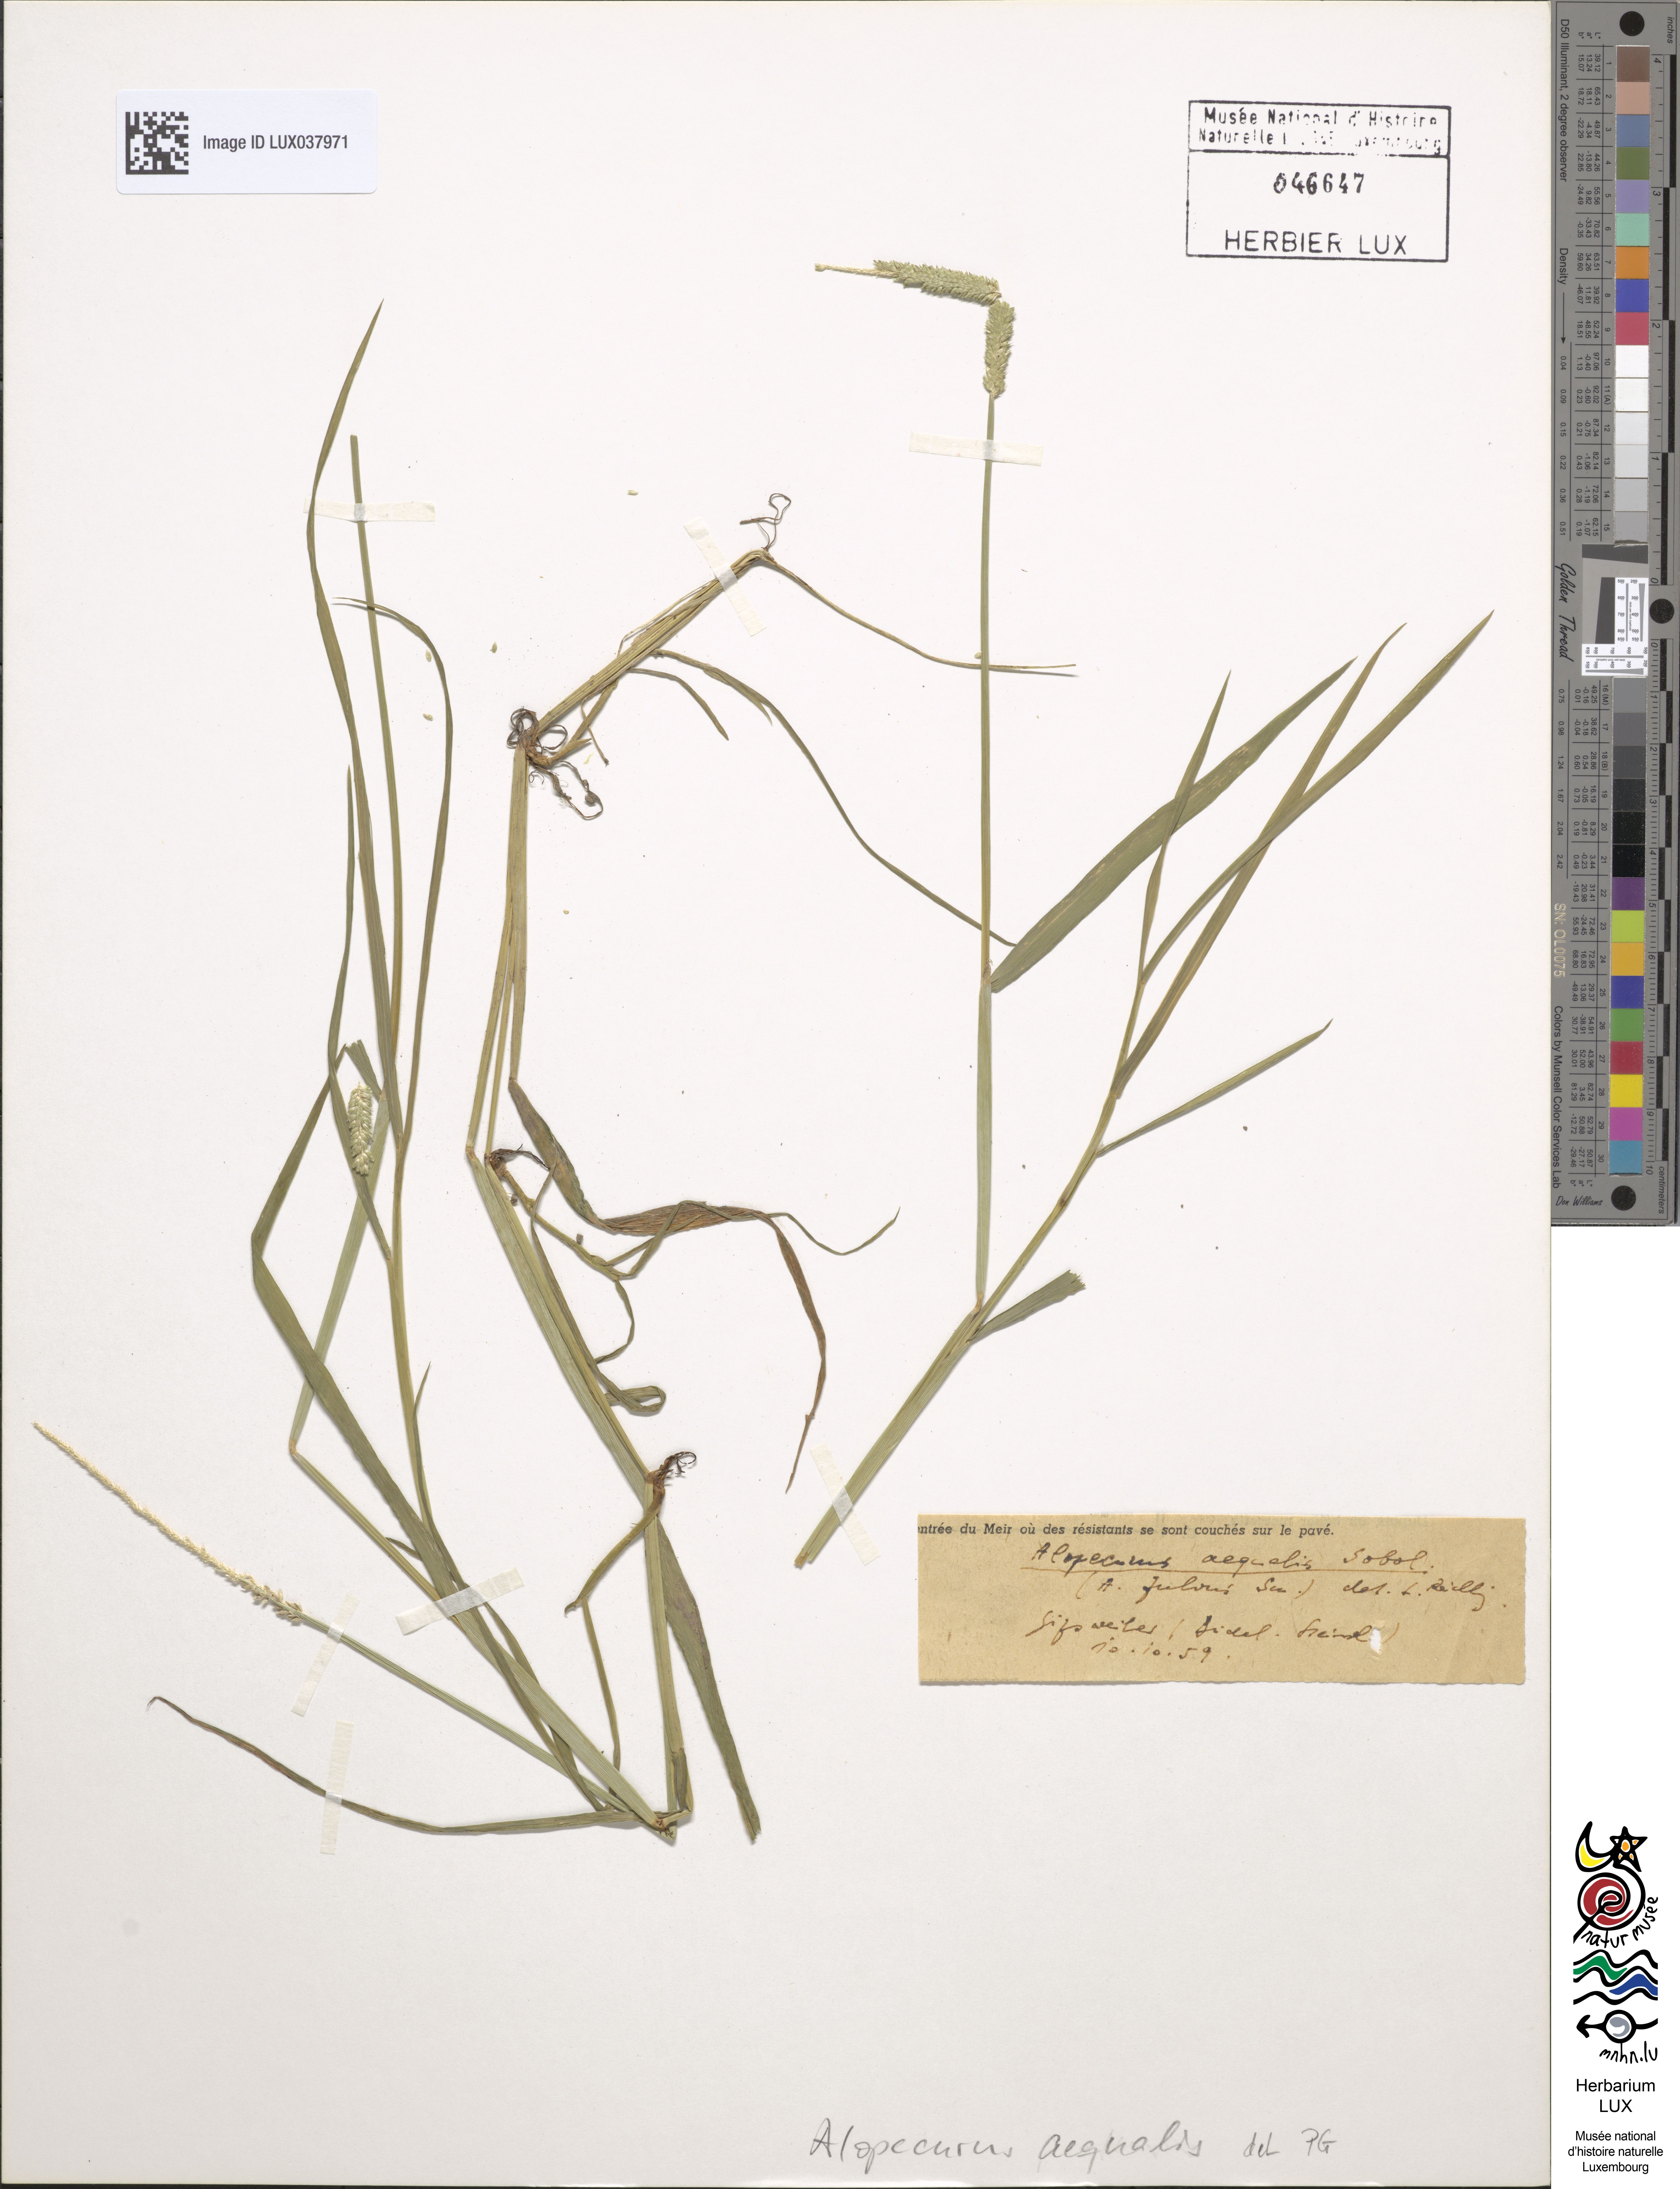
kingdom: Plantae
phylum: Tracheophyta
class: Liliopsida
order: Poales
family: Poaceae
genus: Alopecurus
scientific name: Alopecurus aequalis
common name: Orange foxtail
